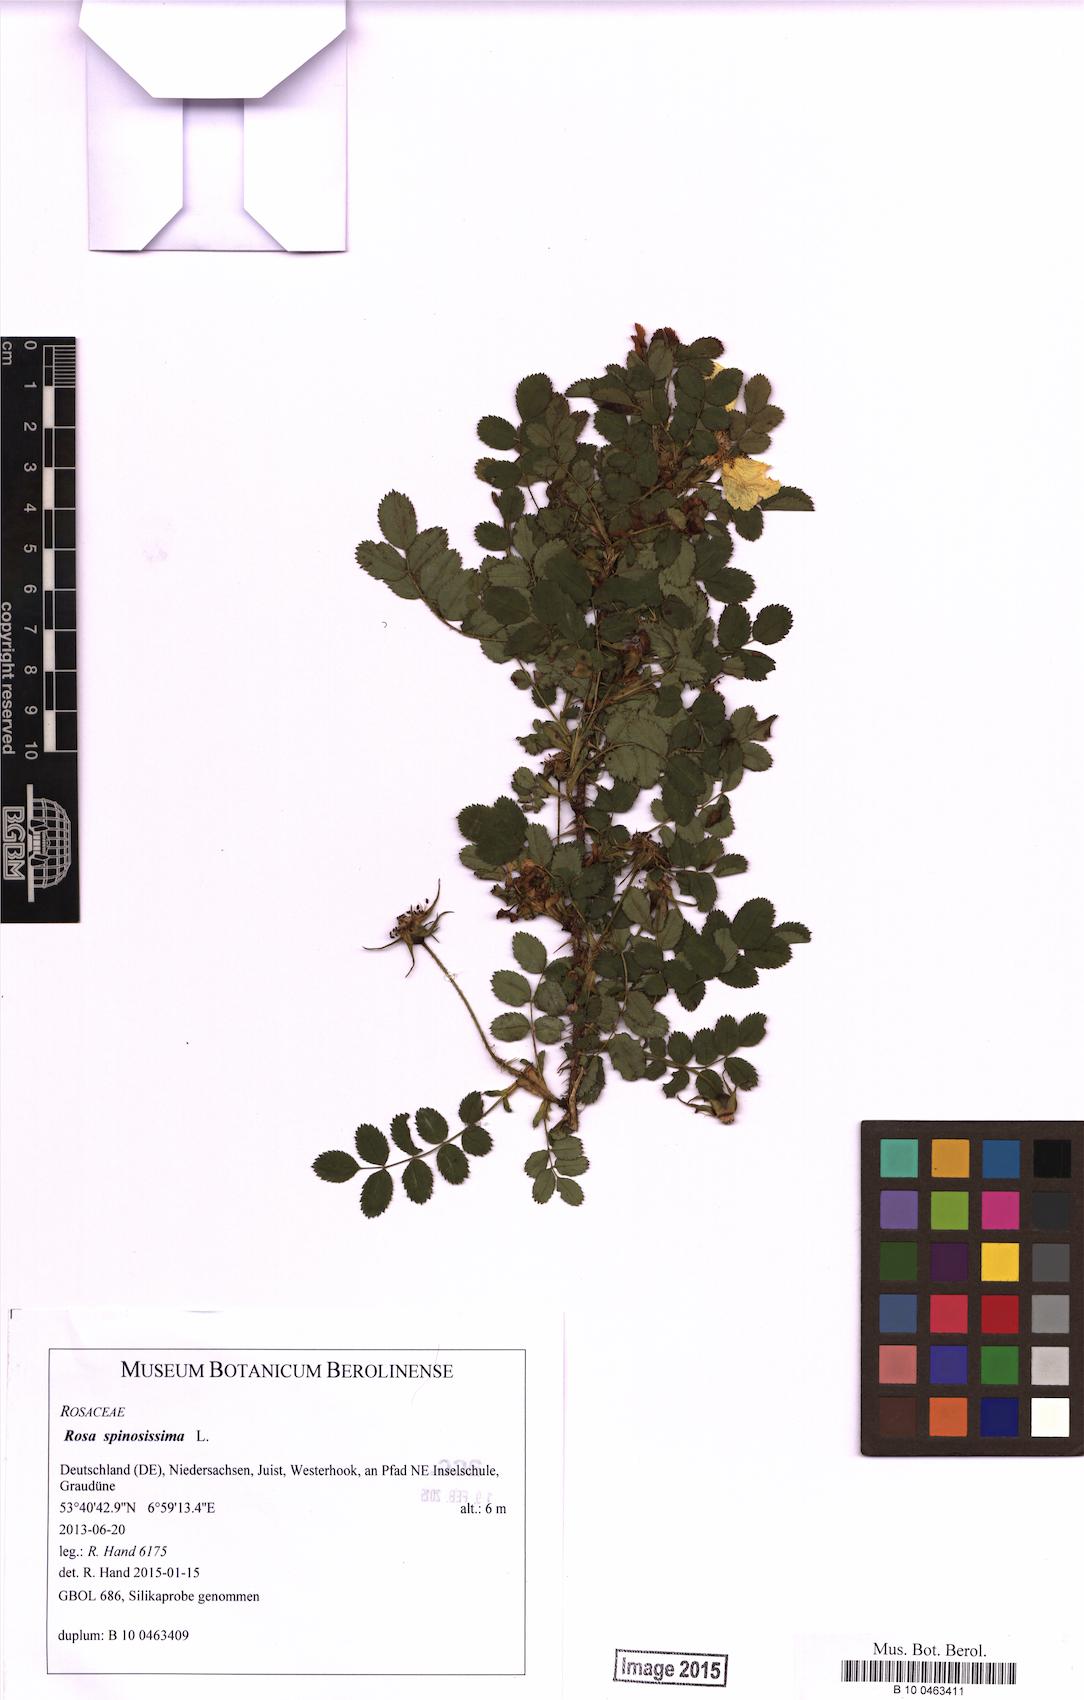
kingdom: Plantae
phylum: Tracheophyta
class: Magnoliopsida
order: Rosales
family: Rosaceae
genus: Rosa
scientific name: Rosa spinosissima
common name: Burnet rose
